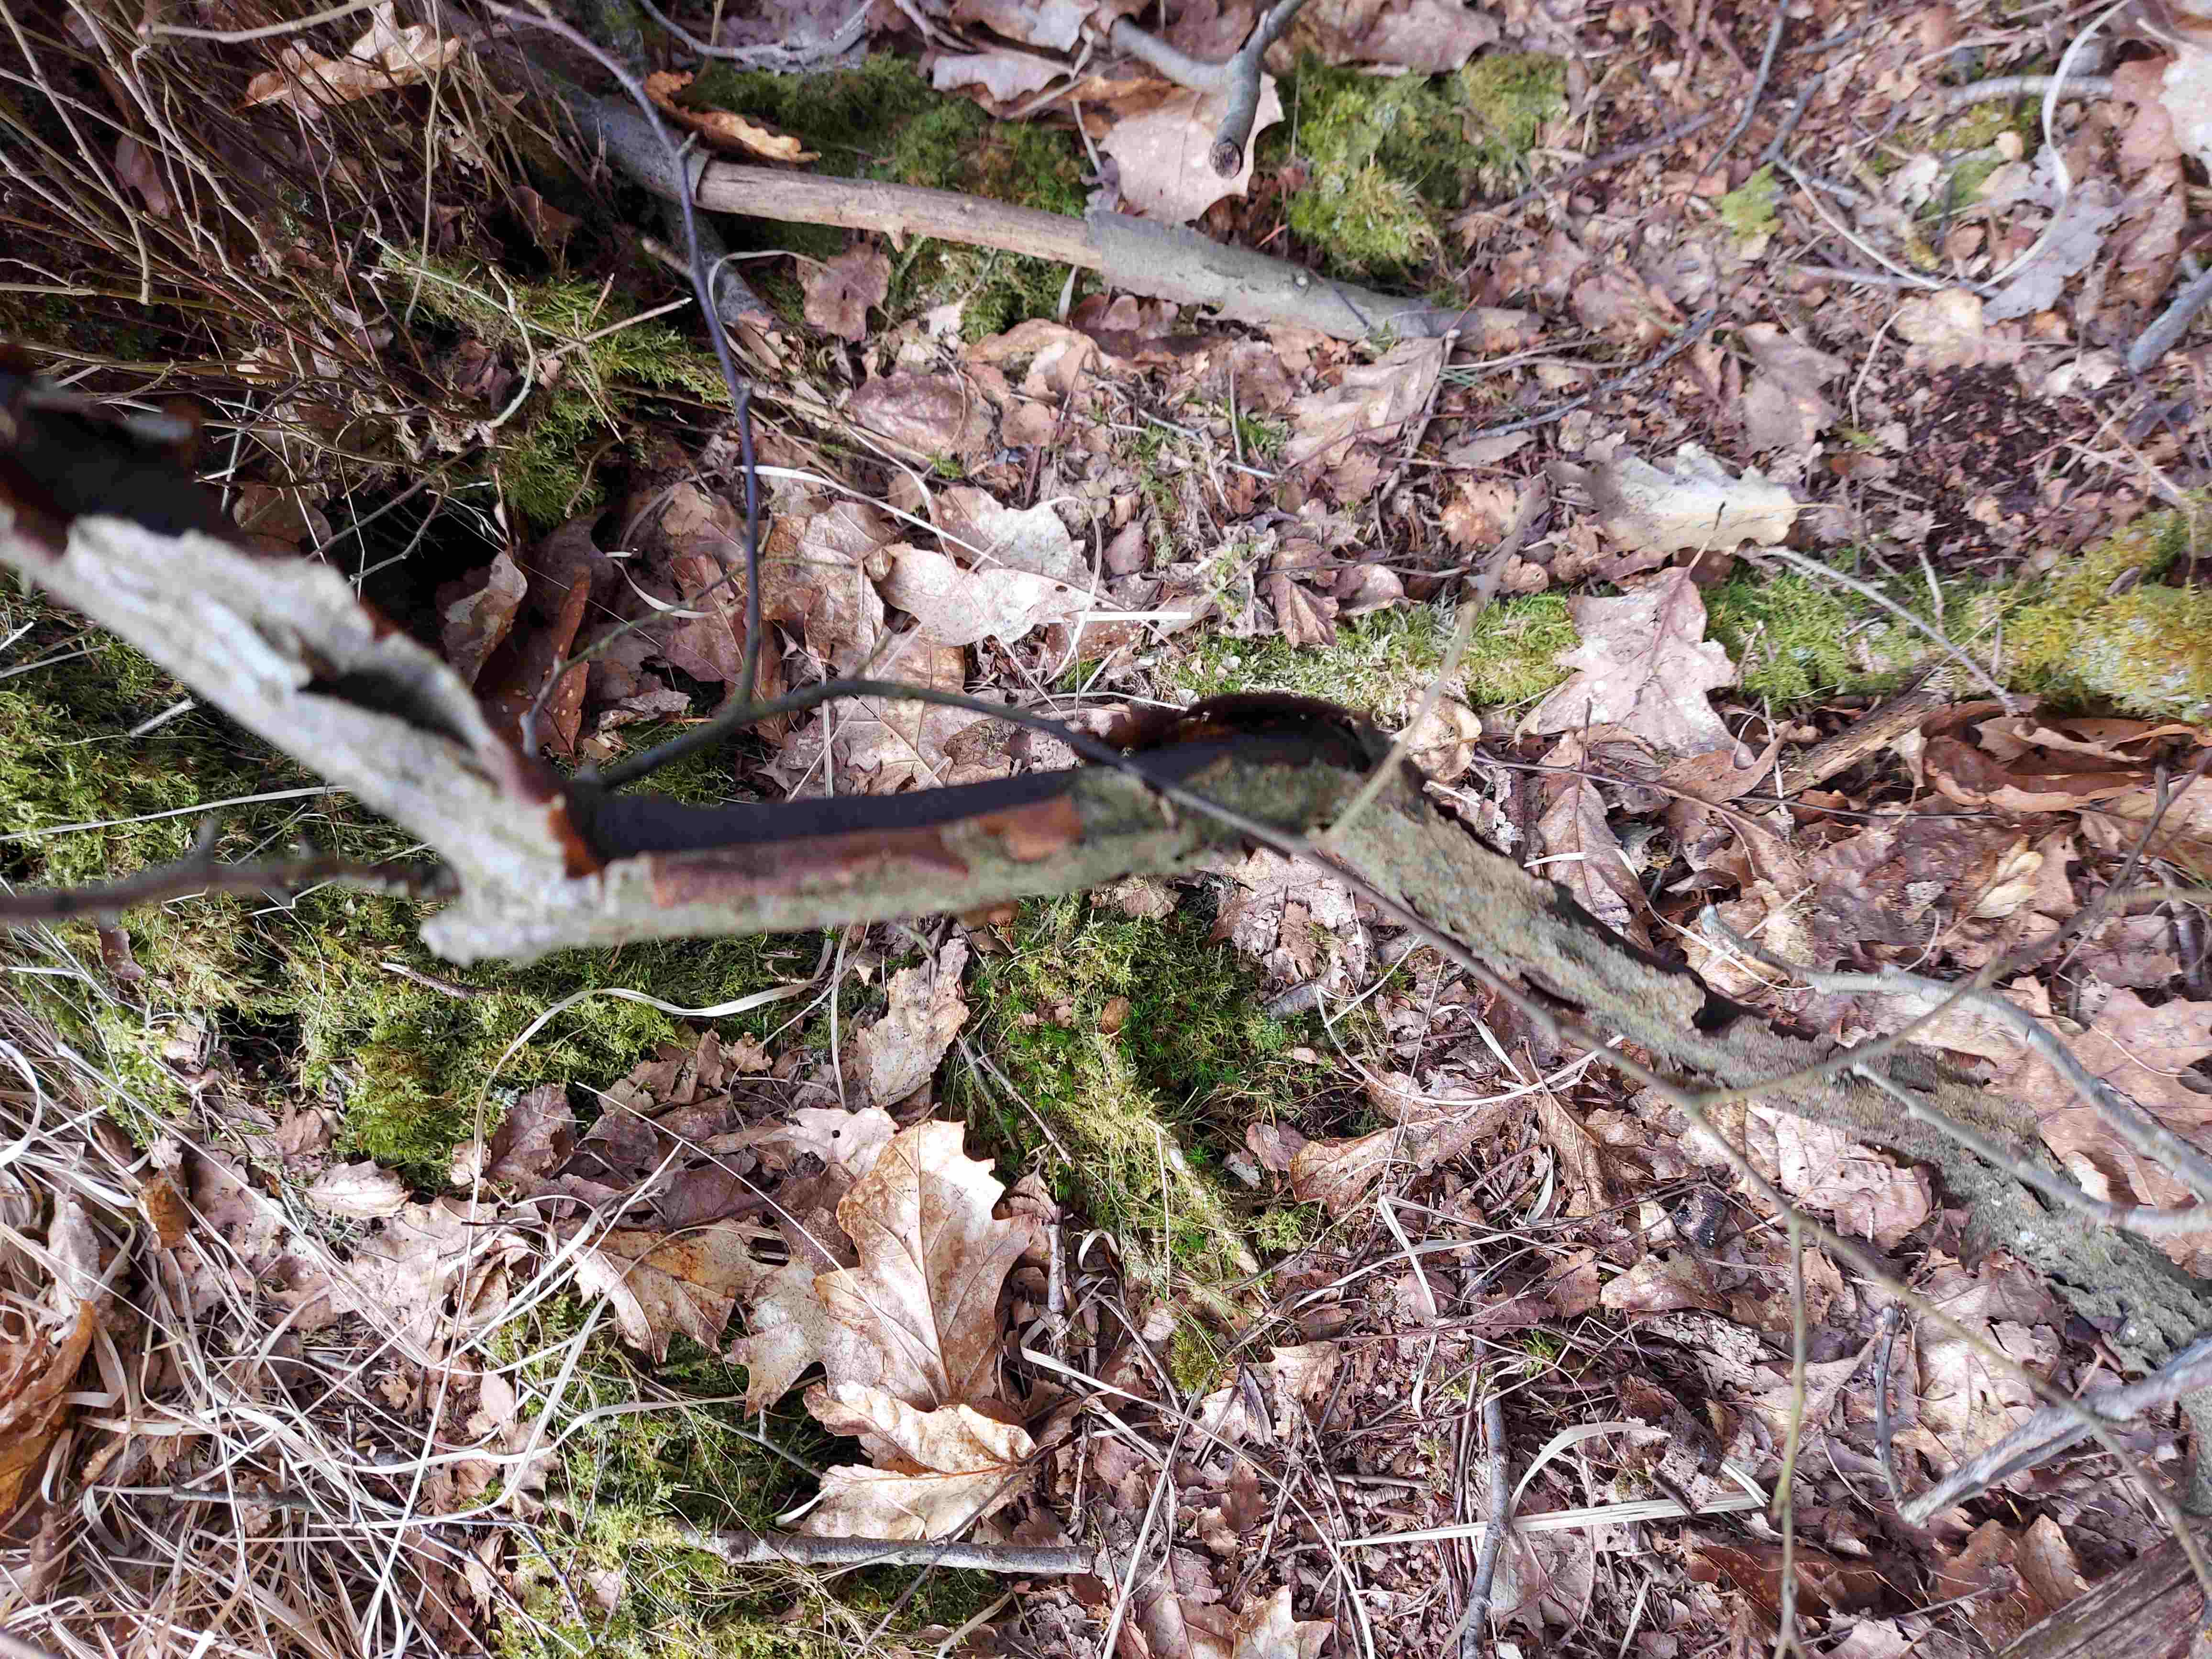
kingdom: Fungi
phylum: Ascomycota
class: Sordariomycetes
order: Xylariales
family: Diatrypaceae
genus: Diatrype
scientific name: Diatrype decorticata
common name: barksprænger-kulskorpe
